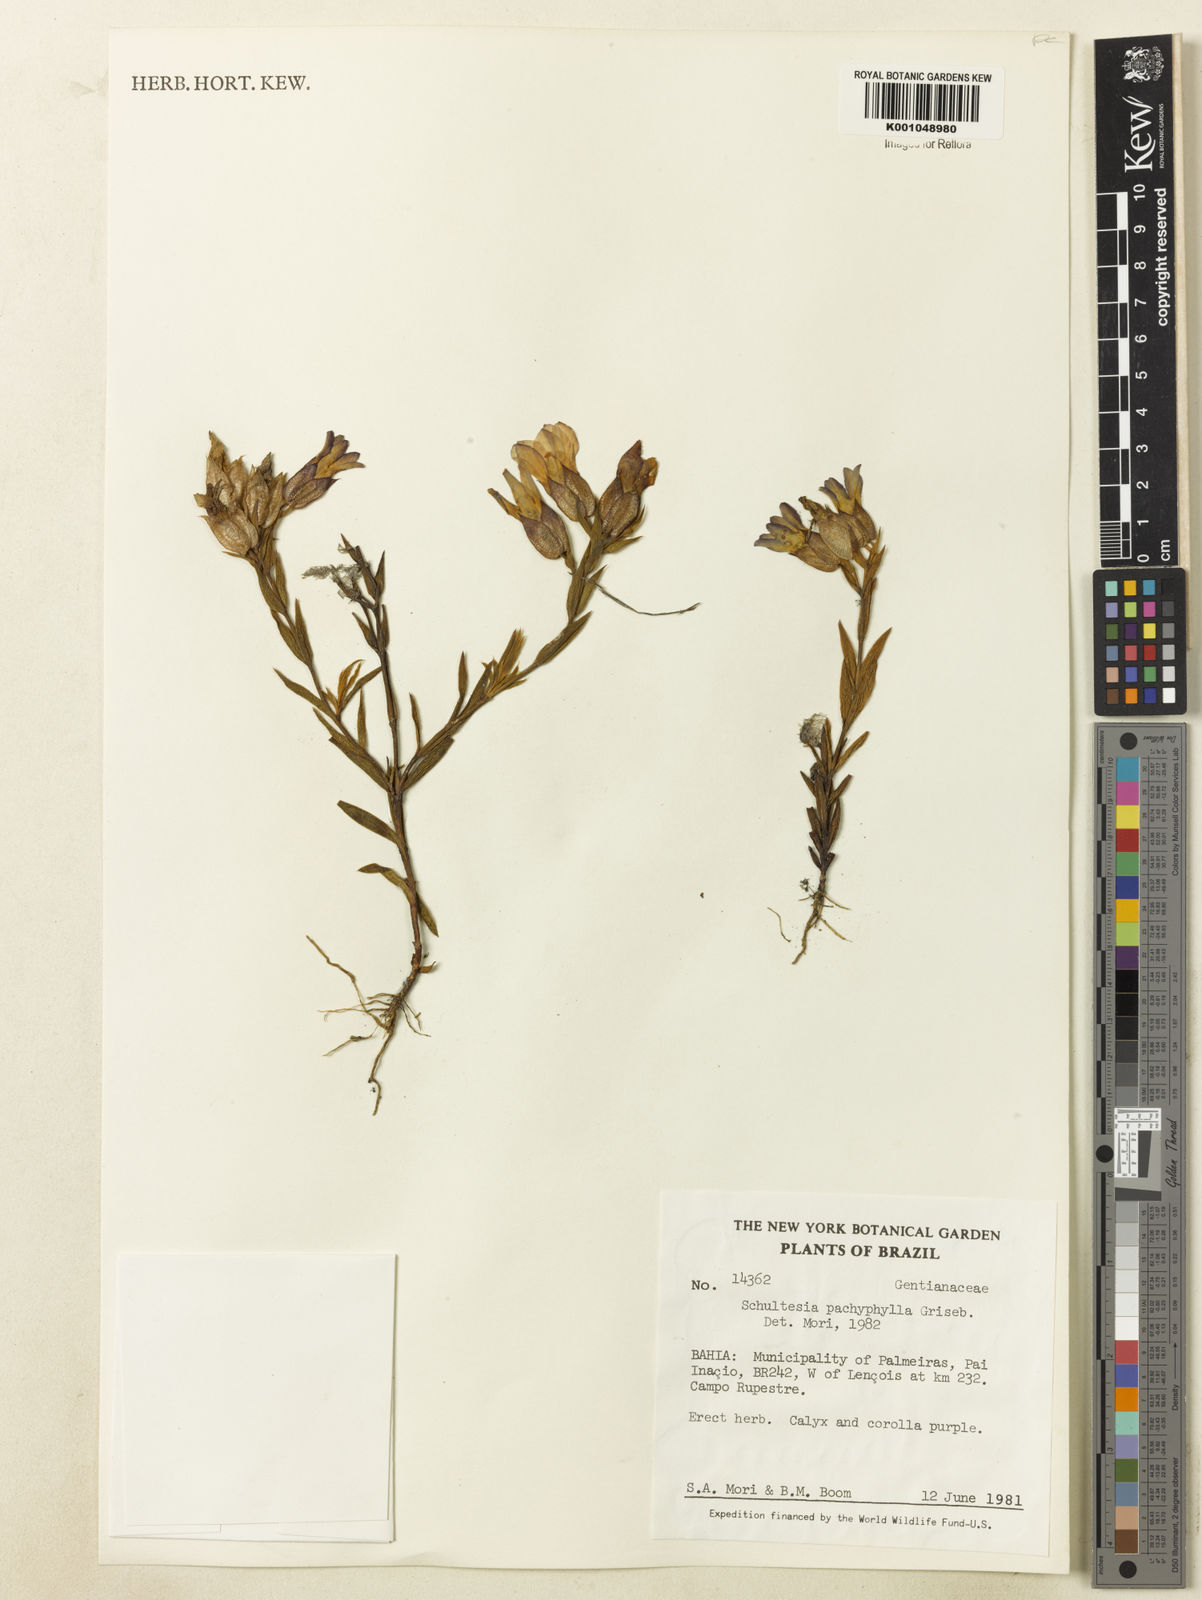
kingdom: Plantae
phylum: Tracheophyta
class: Magnoliopsida
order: Gentianales
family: Gentianaceae
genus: Schultesia
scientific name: Schultesia pachyphylla
